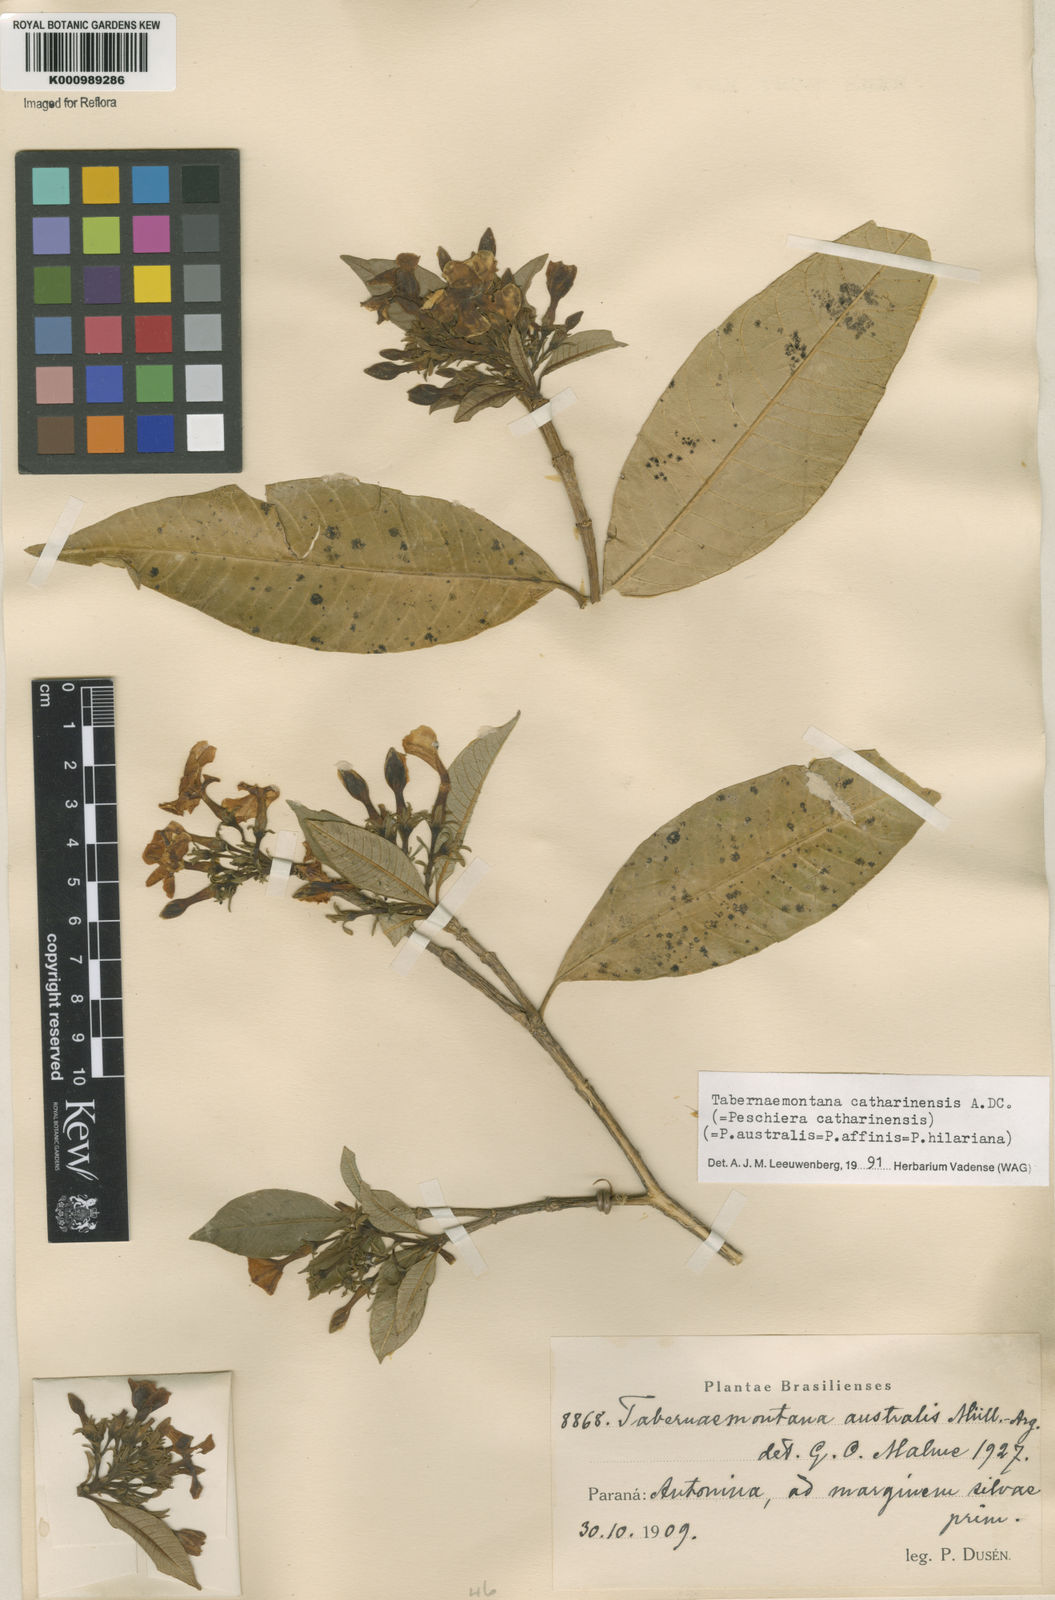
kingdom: Plantae
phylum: Tracheophyta
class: Magnoliopsida
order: Gentianales
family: Apocynaceae
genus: Tabernaemontana
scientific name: Tabernaemontana catharinensis
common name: Pinwheel-flower
